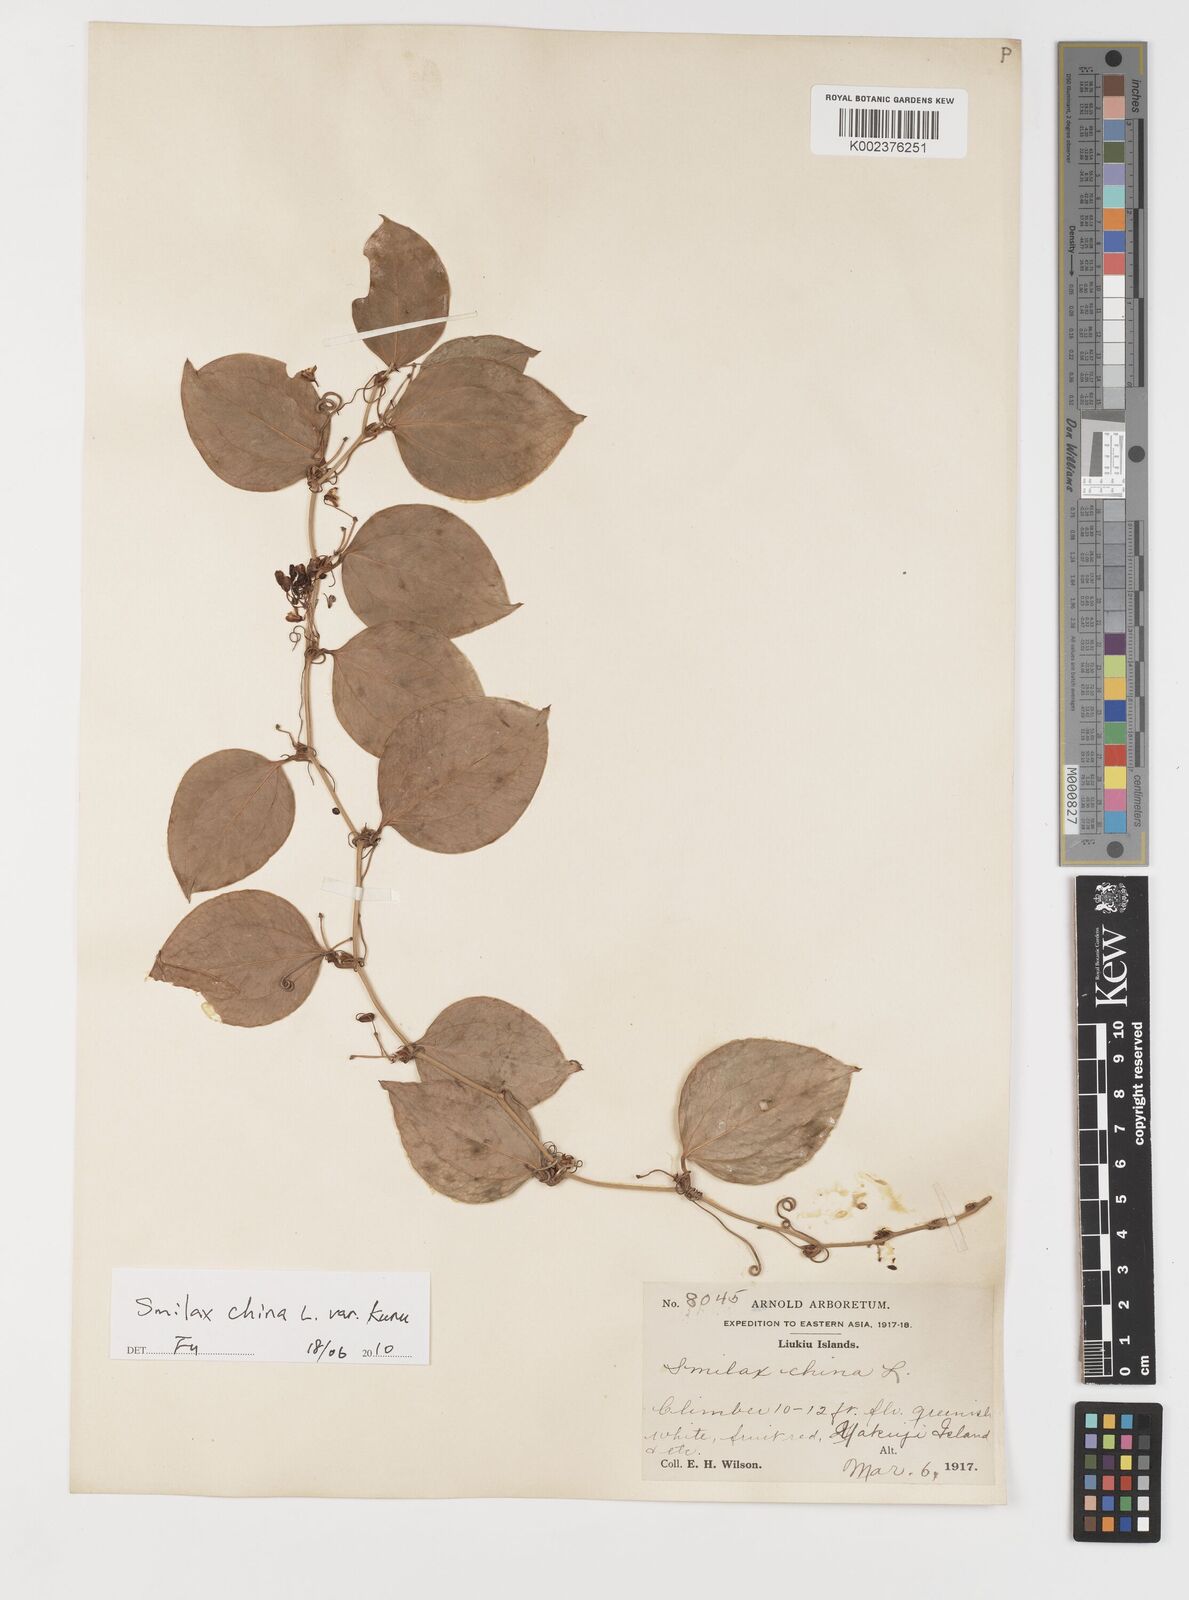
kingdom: Plantae
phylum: Tracheophyta
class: Liliopsida
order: Liliales
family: Smilacaceae
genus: Smilax
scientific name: Smilax china
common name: Chinaroot
